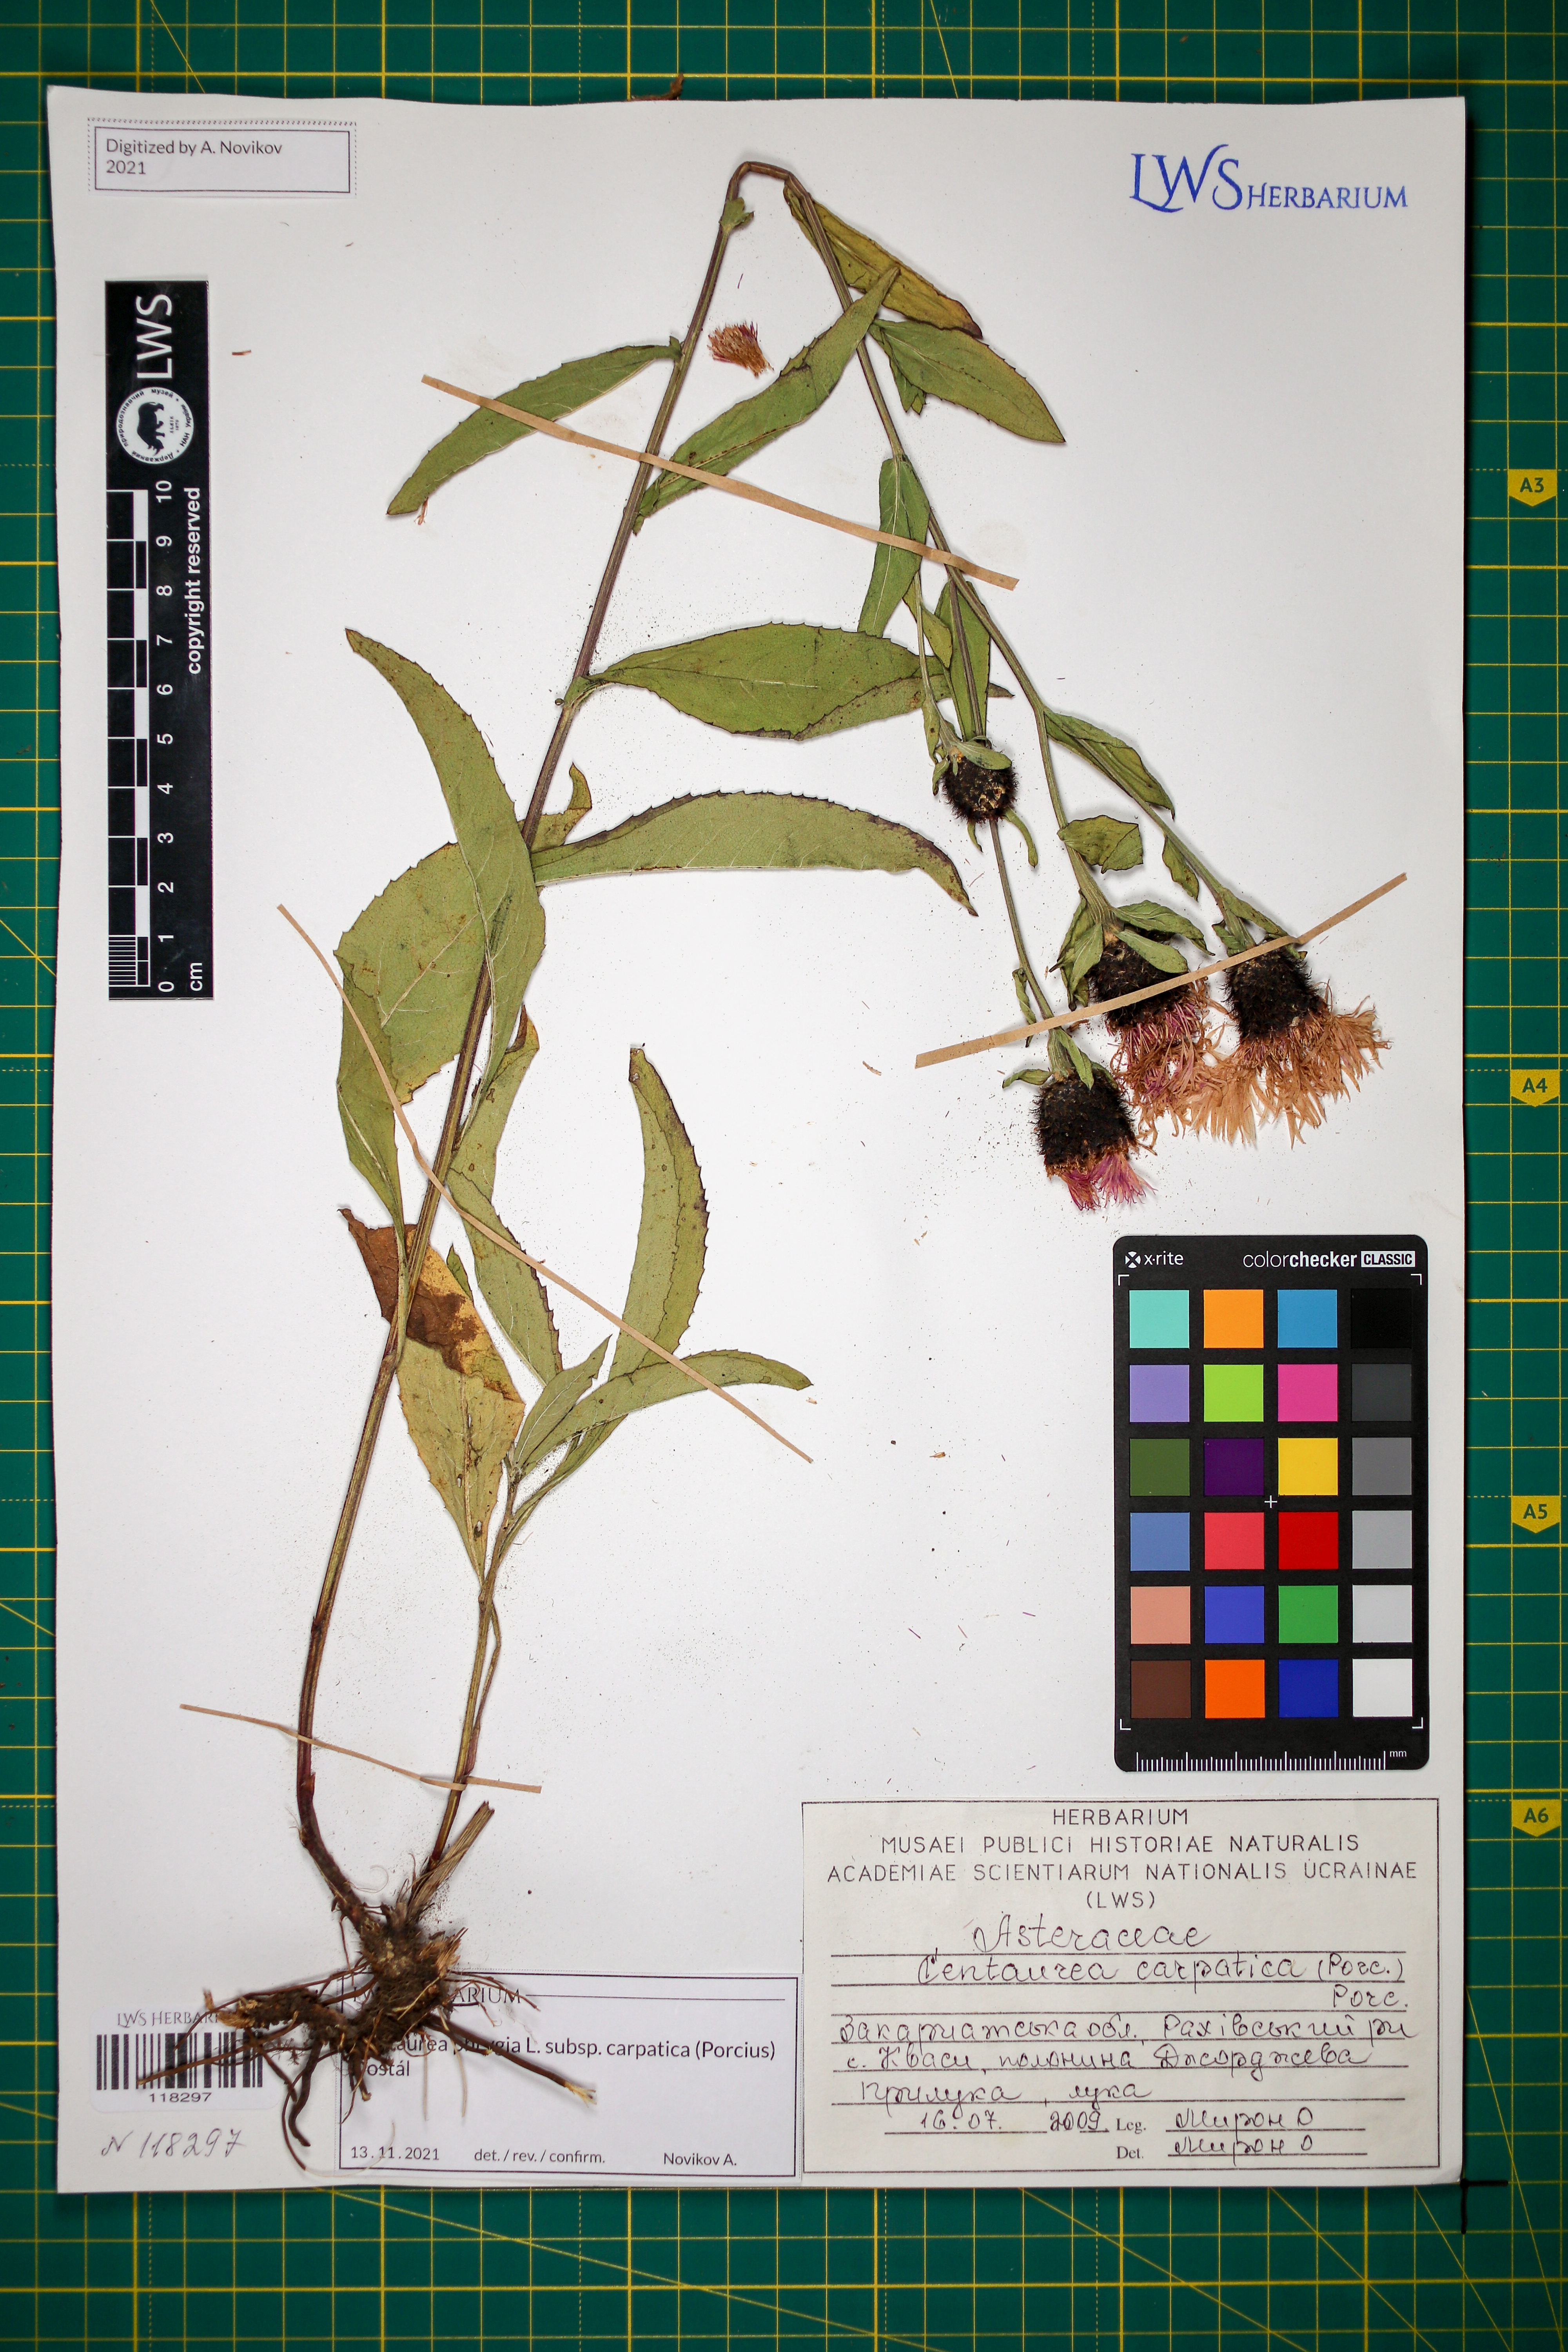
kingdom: Plantae
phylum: Tracheophyta
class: Magnoliopsida
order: Asterales
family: Asteraceae
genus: Centaurea
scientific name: Centaurea phrygia
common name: Wig knapweed
